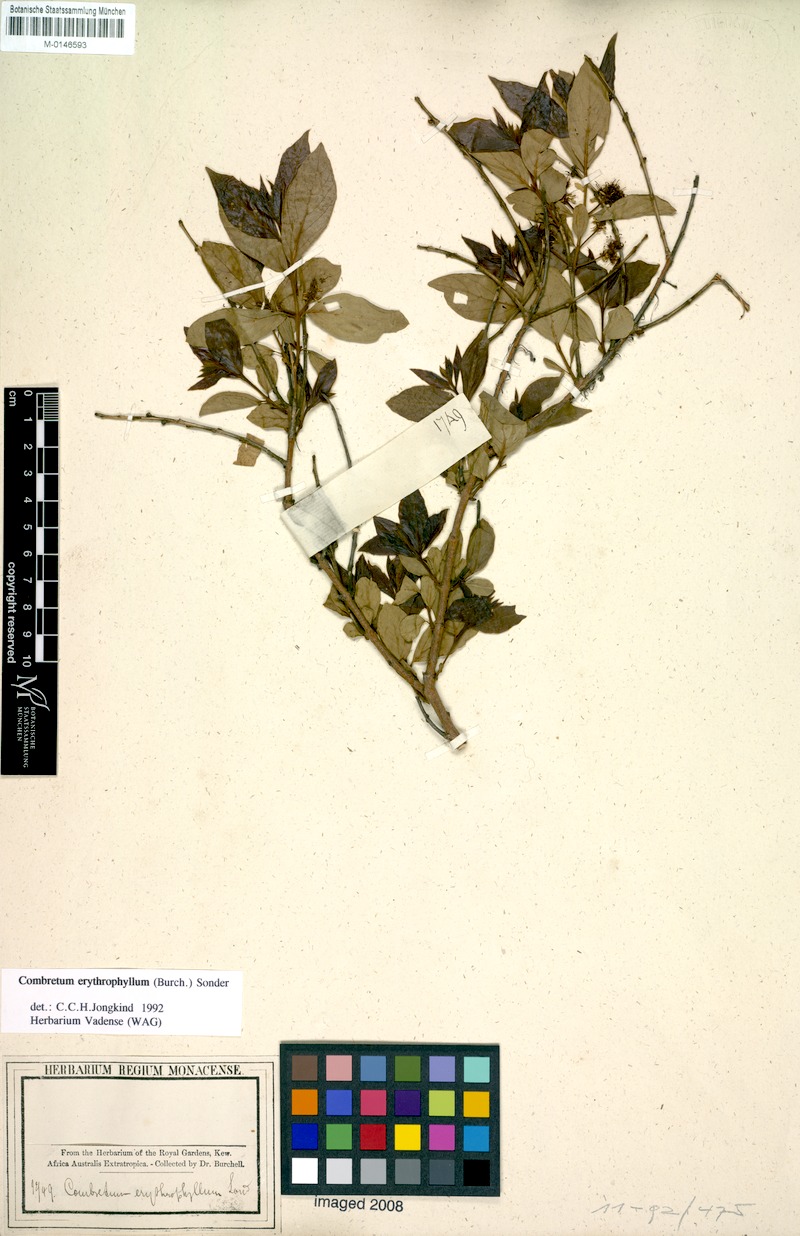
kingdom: Plantae
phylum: Tracheophyta
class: Magnoliopsida
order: Myrtales
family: Combretaceae
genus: Combretum
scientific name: Combretum erythrophyllum
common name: Bush-willow
